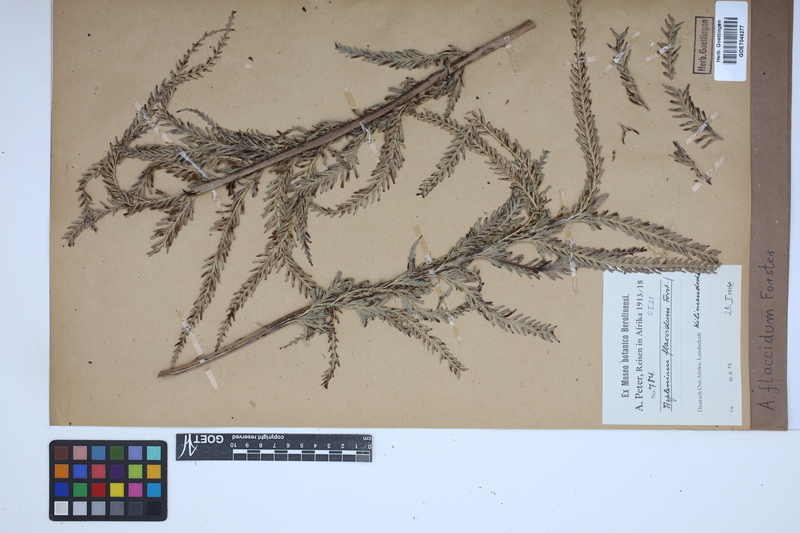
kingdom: Plantae
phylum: Tracheophyta
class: Polypodiopsida
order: Polypodiales
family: Aspleniaceae
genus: Asplenium
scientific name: Asplenium flaccidum
